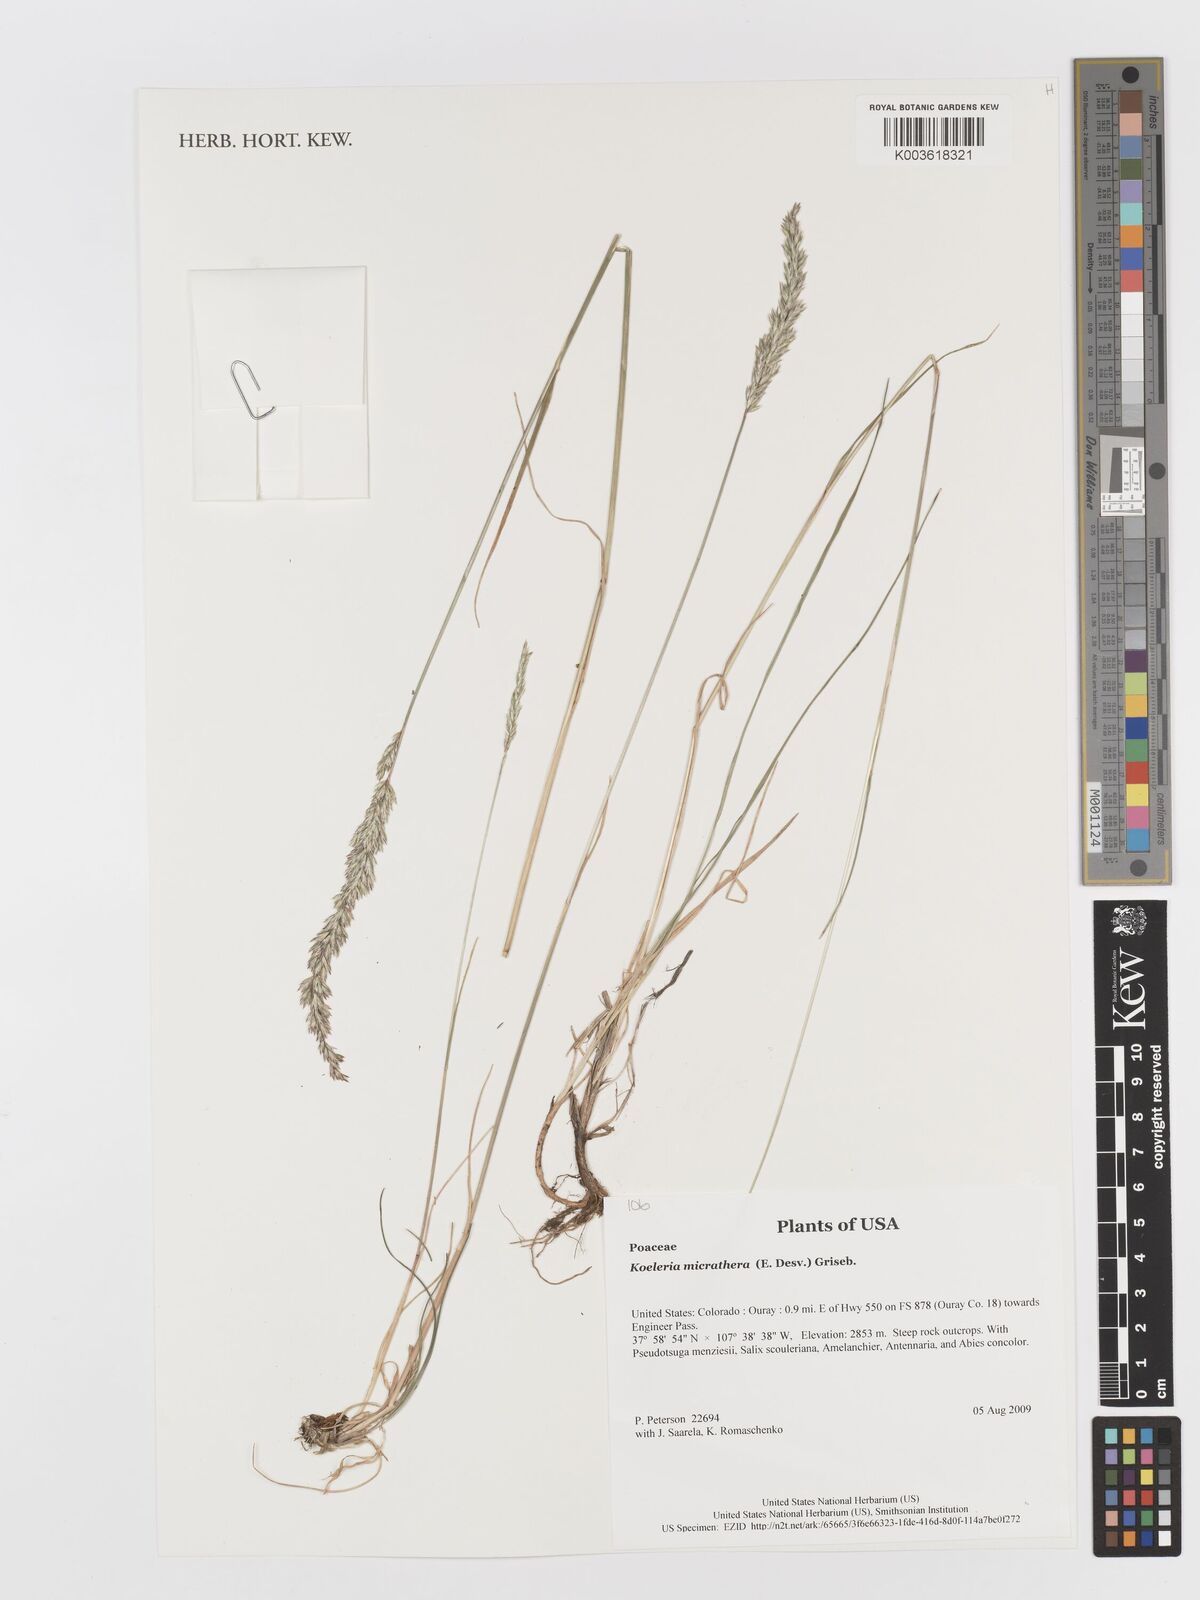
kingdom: Plantae
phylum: Tracheophyta
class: Liliopsida
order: Poales
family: Poaceae
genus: Cinnagrostis
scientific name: Cinnagrostis micrathera
